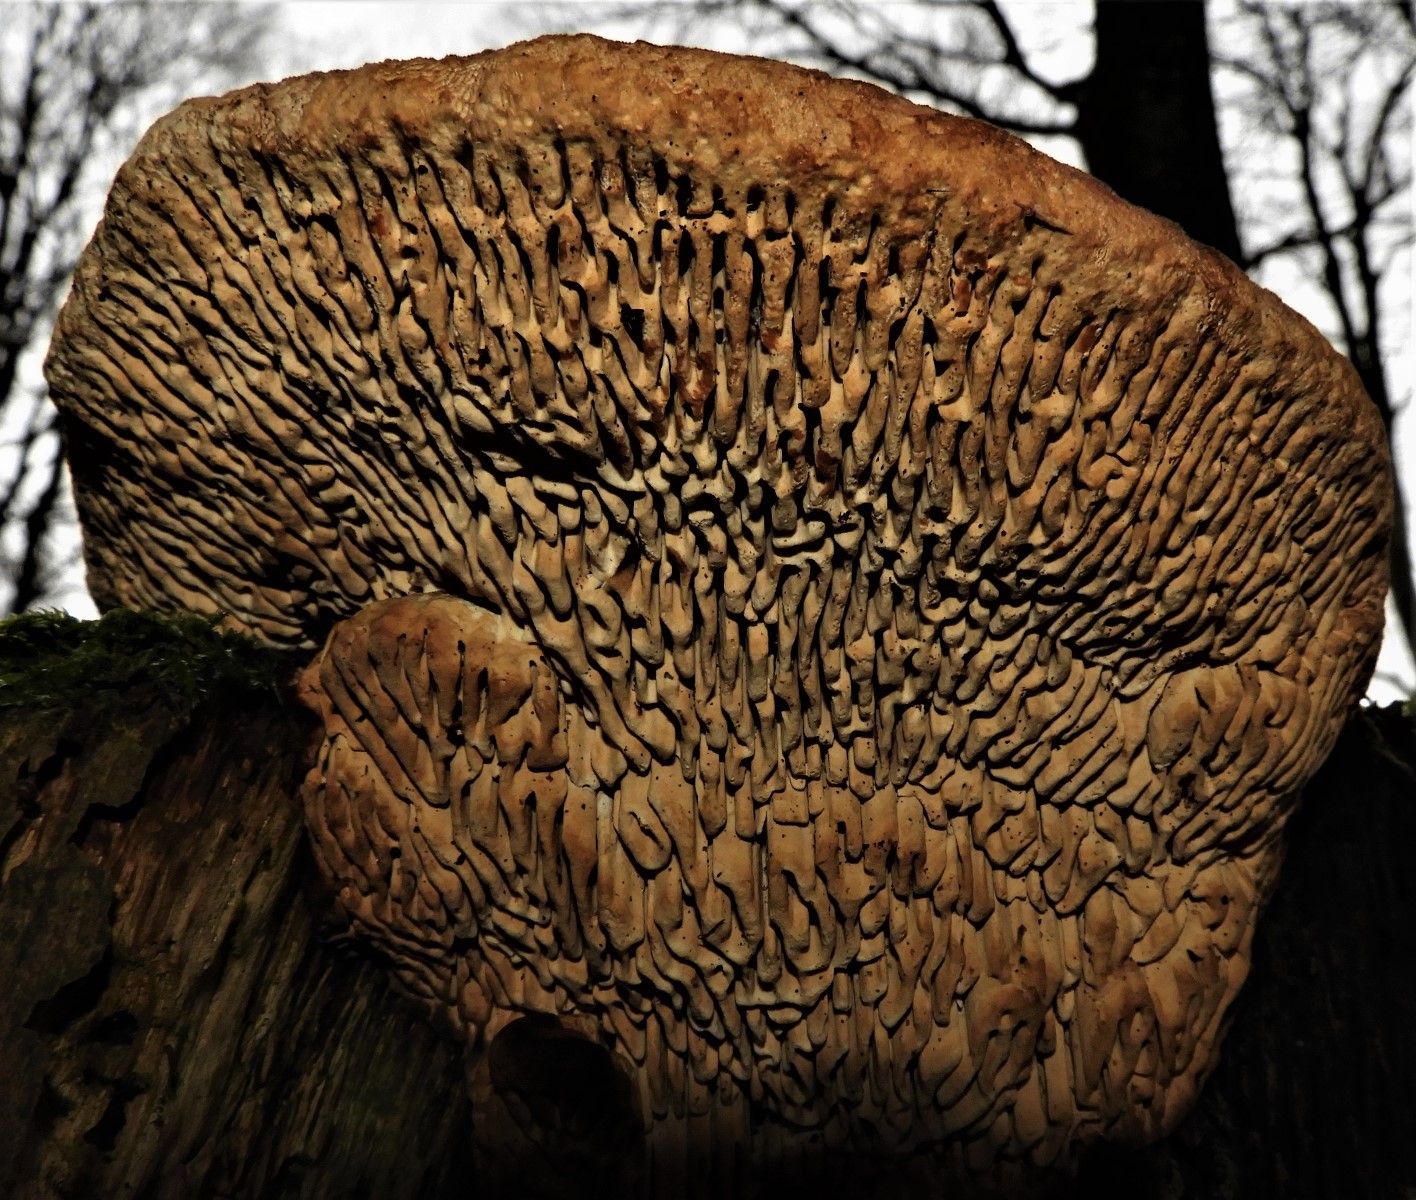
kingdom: Fungi
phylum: Basidiomycota
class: Agaricomycetes
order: Polyporales
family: Polyporaceae
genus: Daedaleopsis
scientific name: Daedaleopsis confragosa
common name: rødmende læderporesvamp
